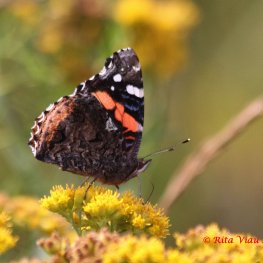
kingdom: Animalia
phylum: Arthropoda
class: Insecta
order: Lepidoptera
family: Nymphalidae
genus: Vanessa
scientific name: Vanessa atalanta
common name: Red Admiral
